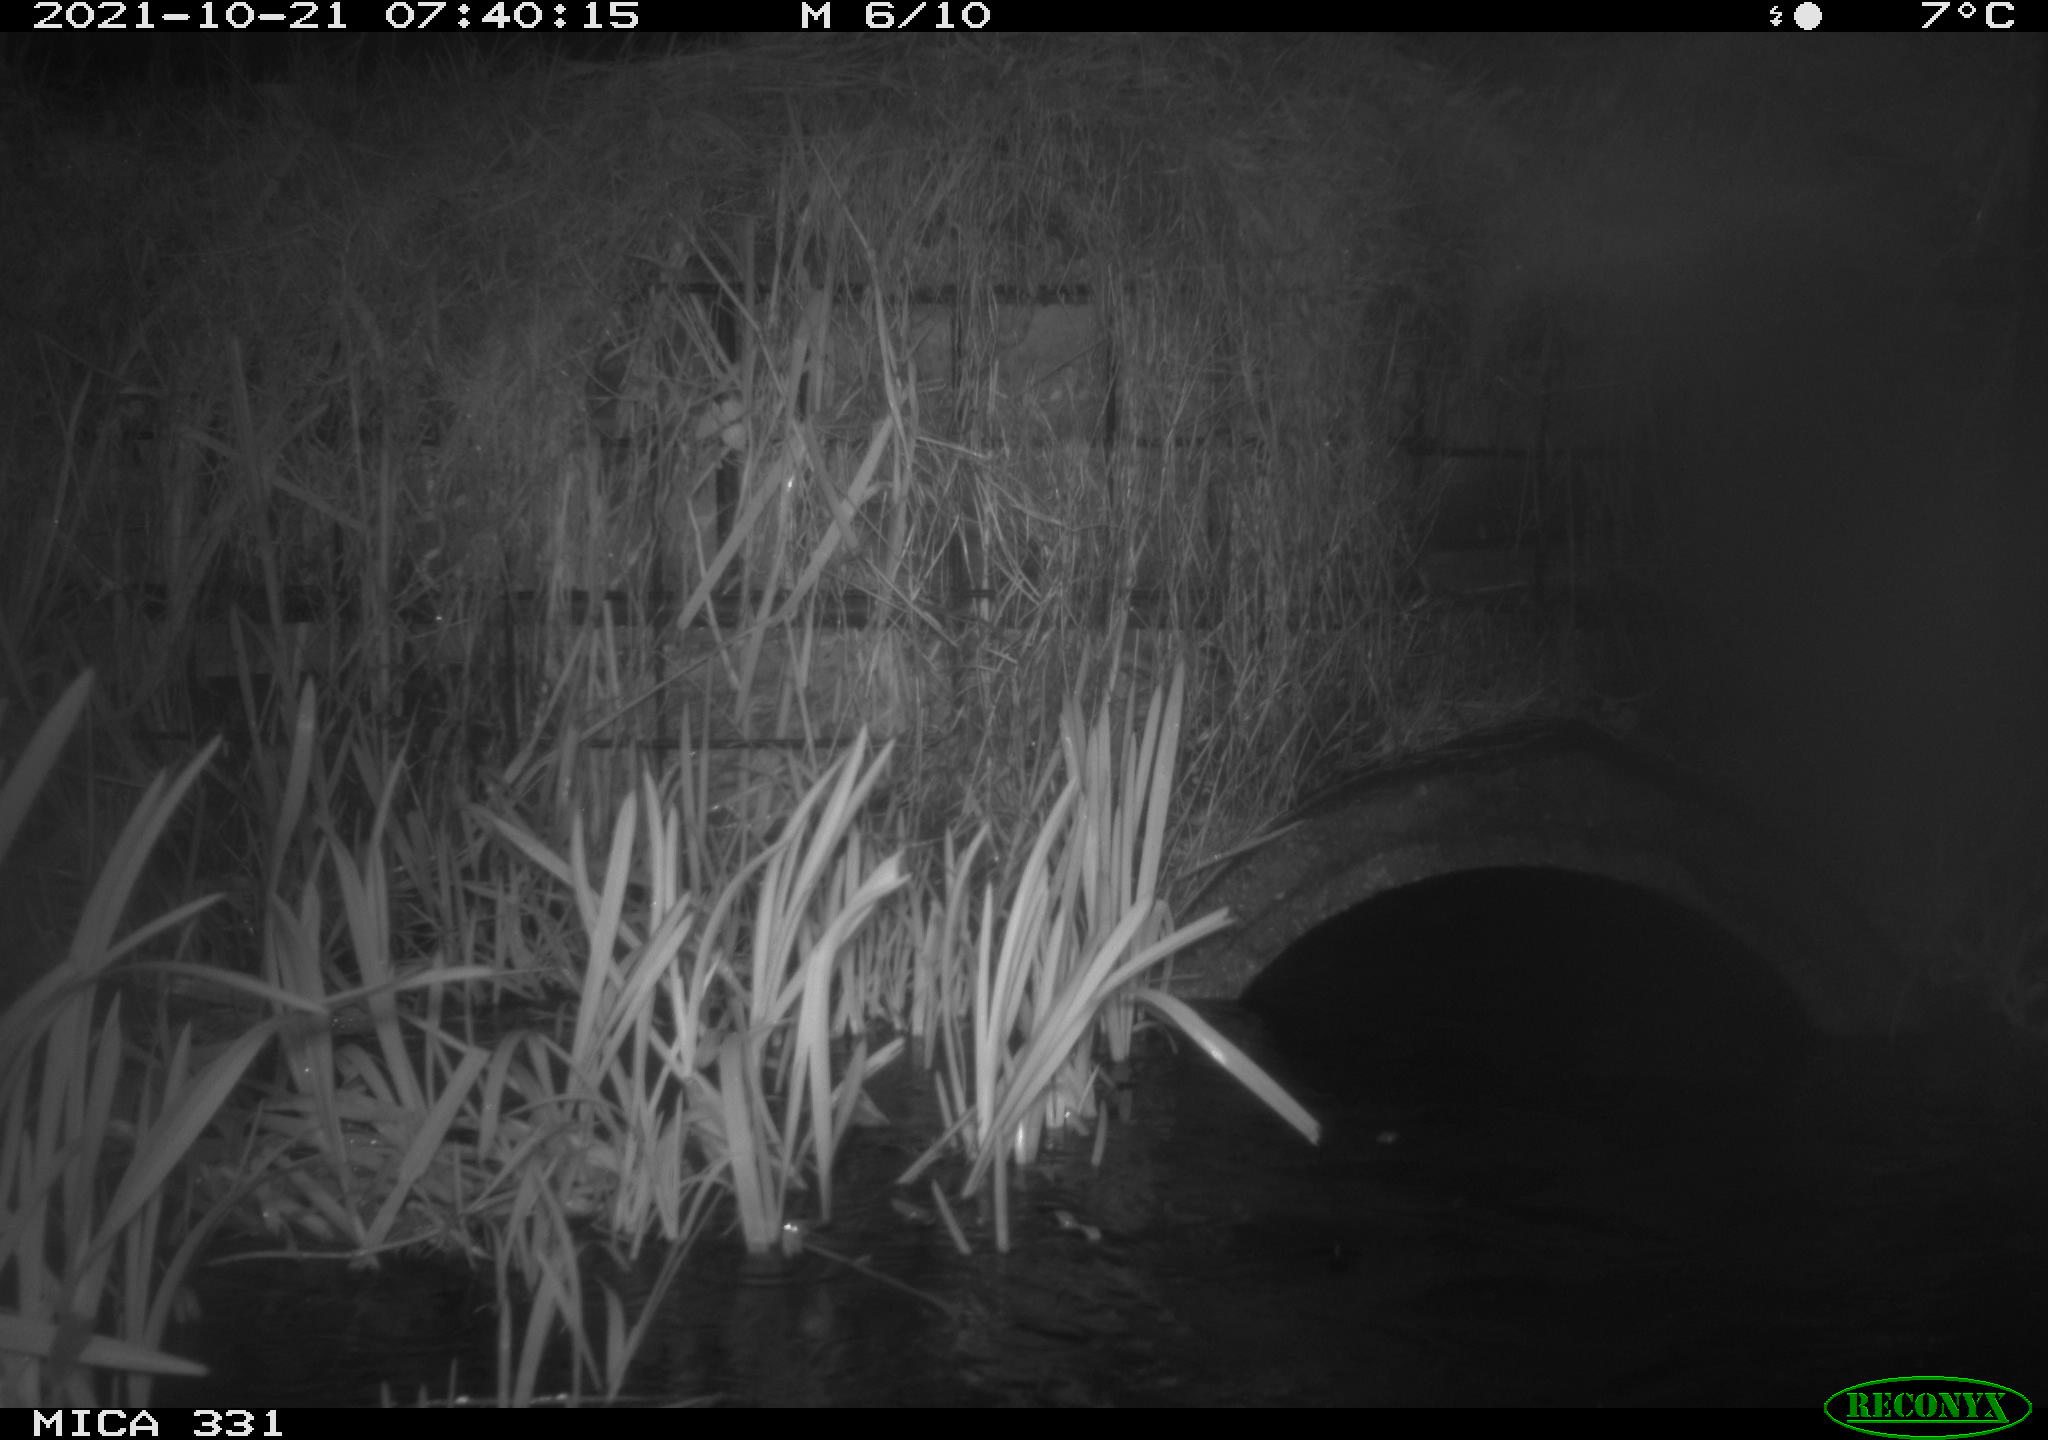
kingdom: Animalia
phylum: Chordata
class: Mammalia
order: Rodentia
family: Muridae
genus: Rattus
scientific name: Rattus norvegicus
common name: Brown rat
